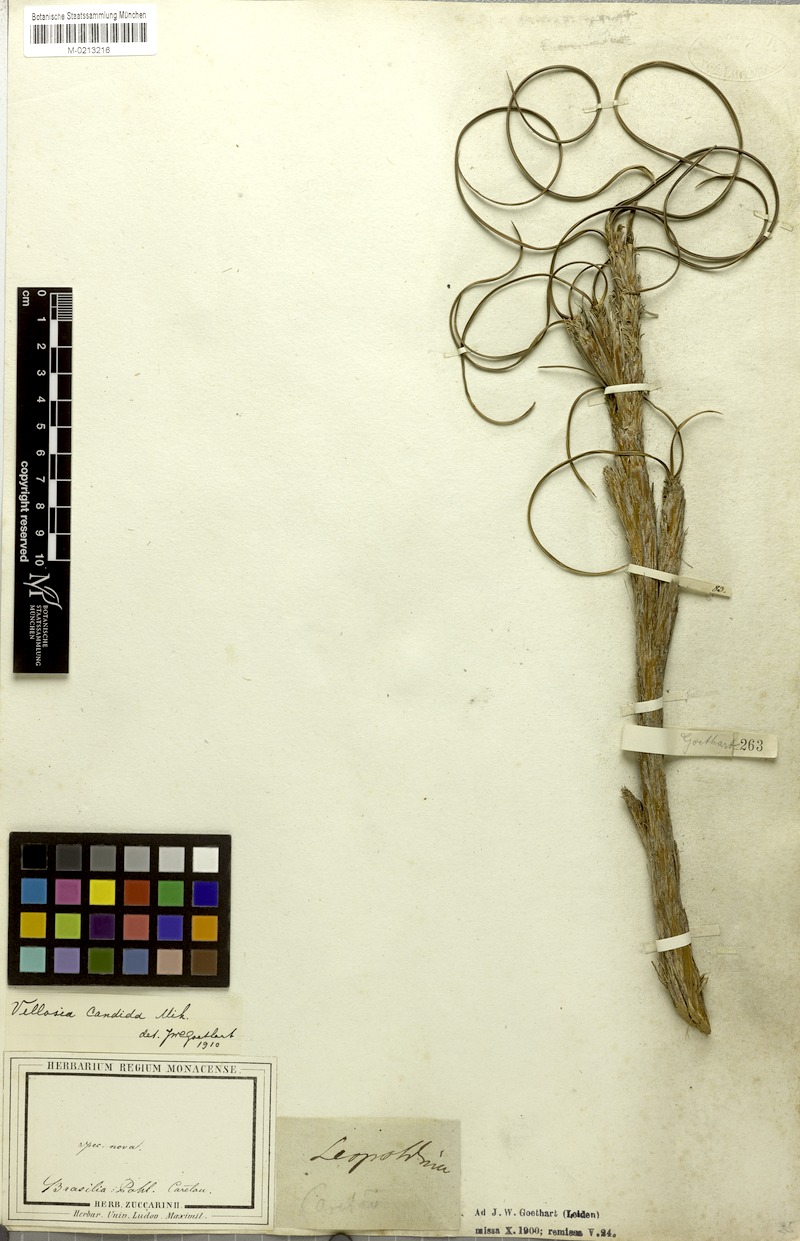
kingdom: Plantae
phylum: Tracheophyta
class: Liliopsida
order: Pandanales
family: Velloziaceae
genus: Vellozia
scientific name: Vellozia candida
